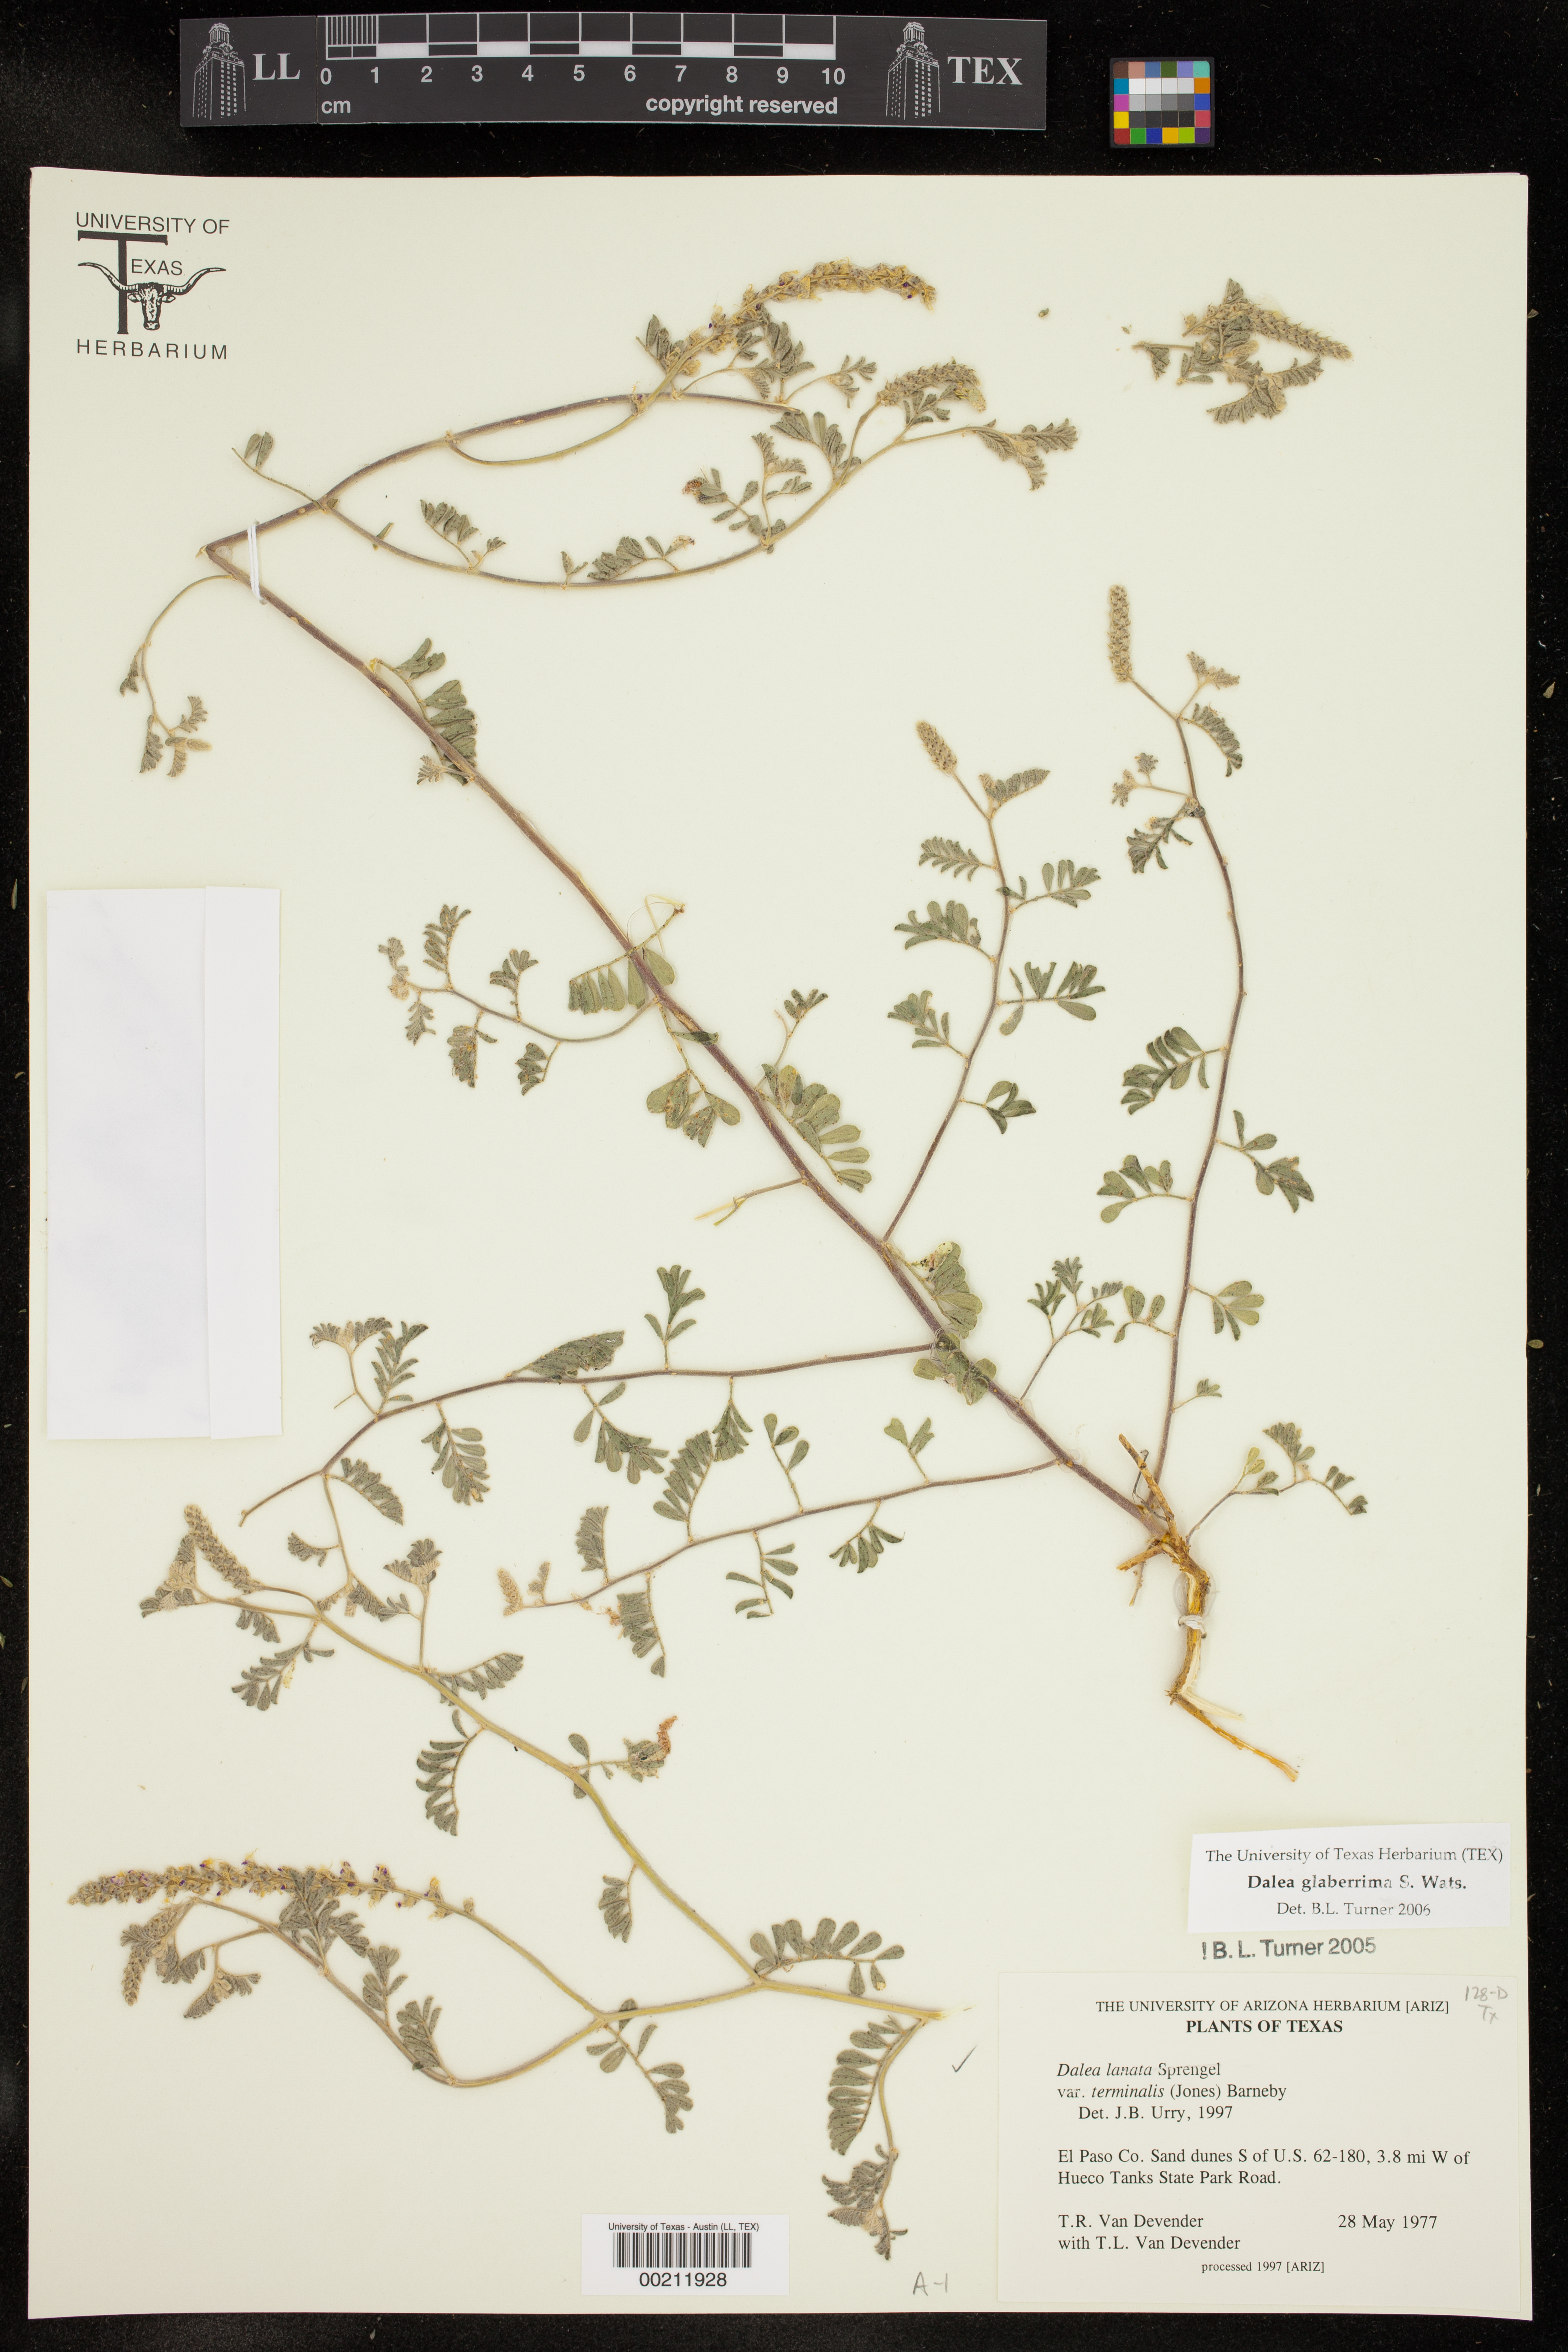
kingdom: Plantae
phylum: Tracheophyta
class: Magnoliopsida
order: Fabales
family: Fabaceae
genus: Dalea
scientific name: Dalea lanata
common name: Woolly dalea
